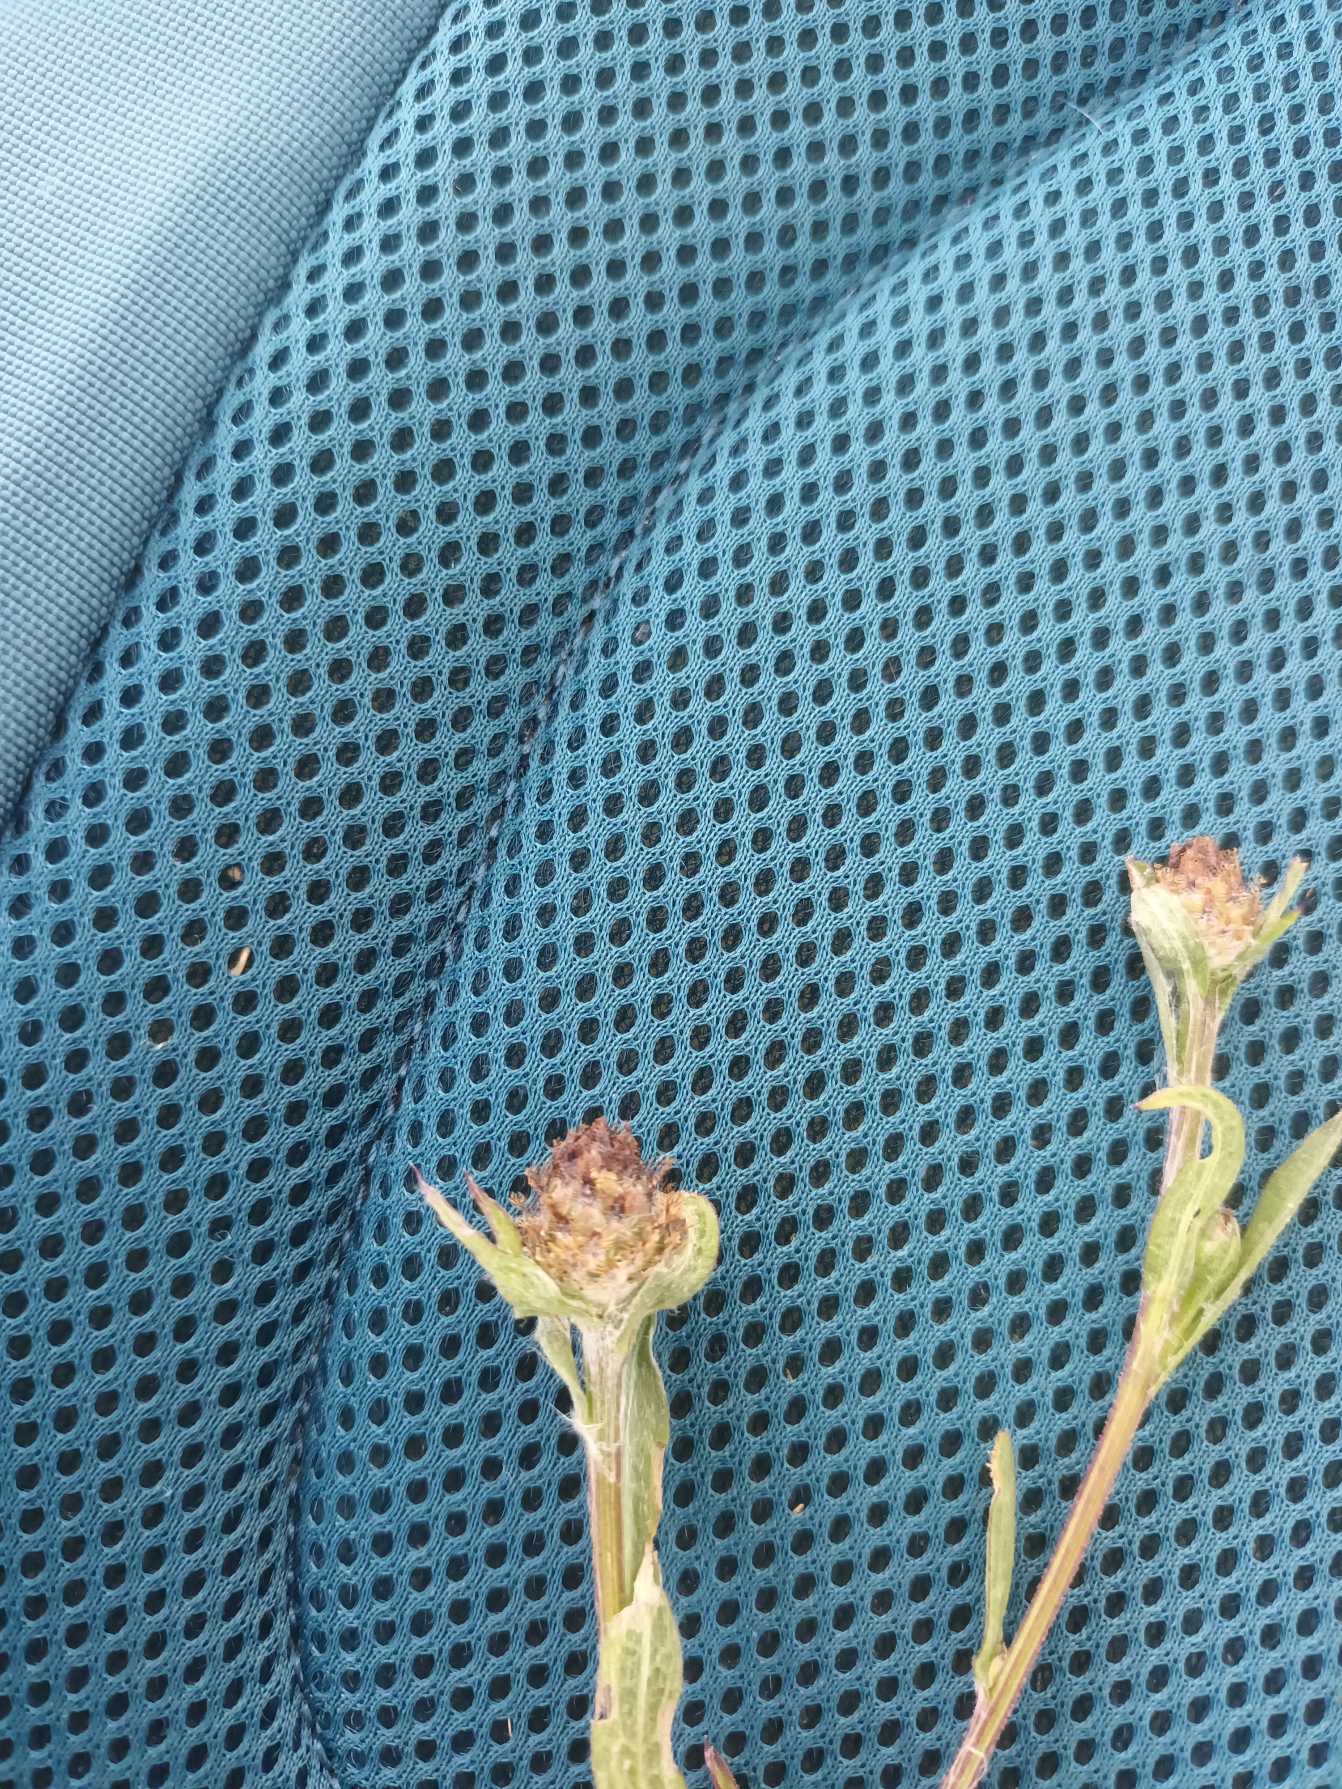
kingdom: Plantae
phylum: Tracheophyta
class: Magnoliopsida
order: Asterales
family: Asteraceae
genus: Centaurea
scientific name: Centaurea debeauxii
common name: Lundknopurt
